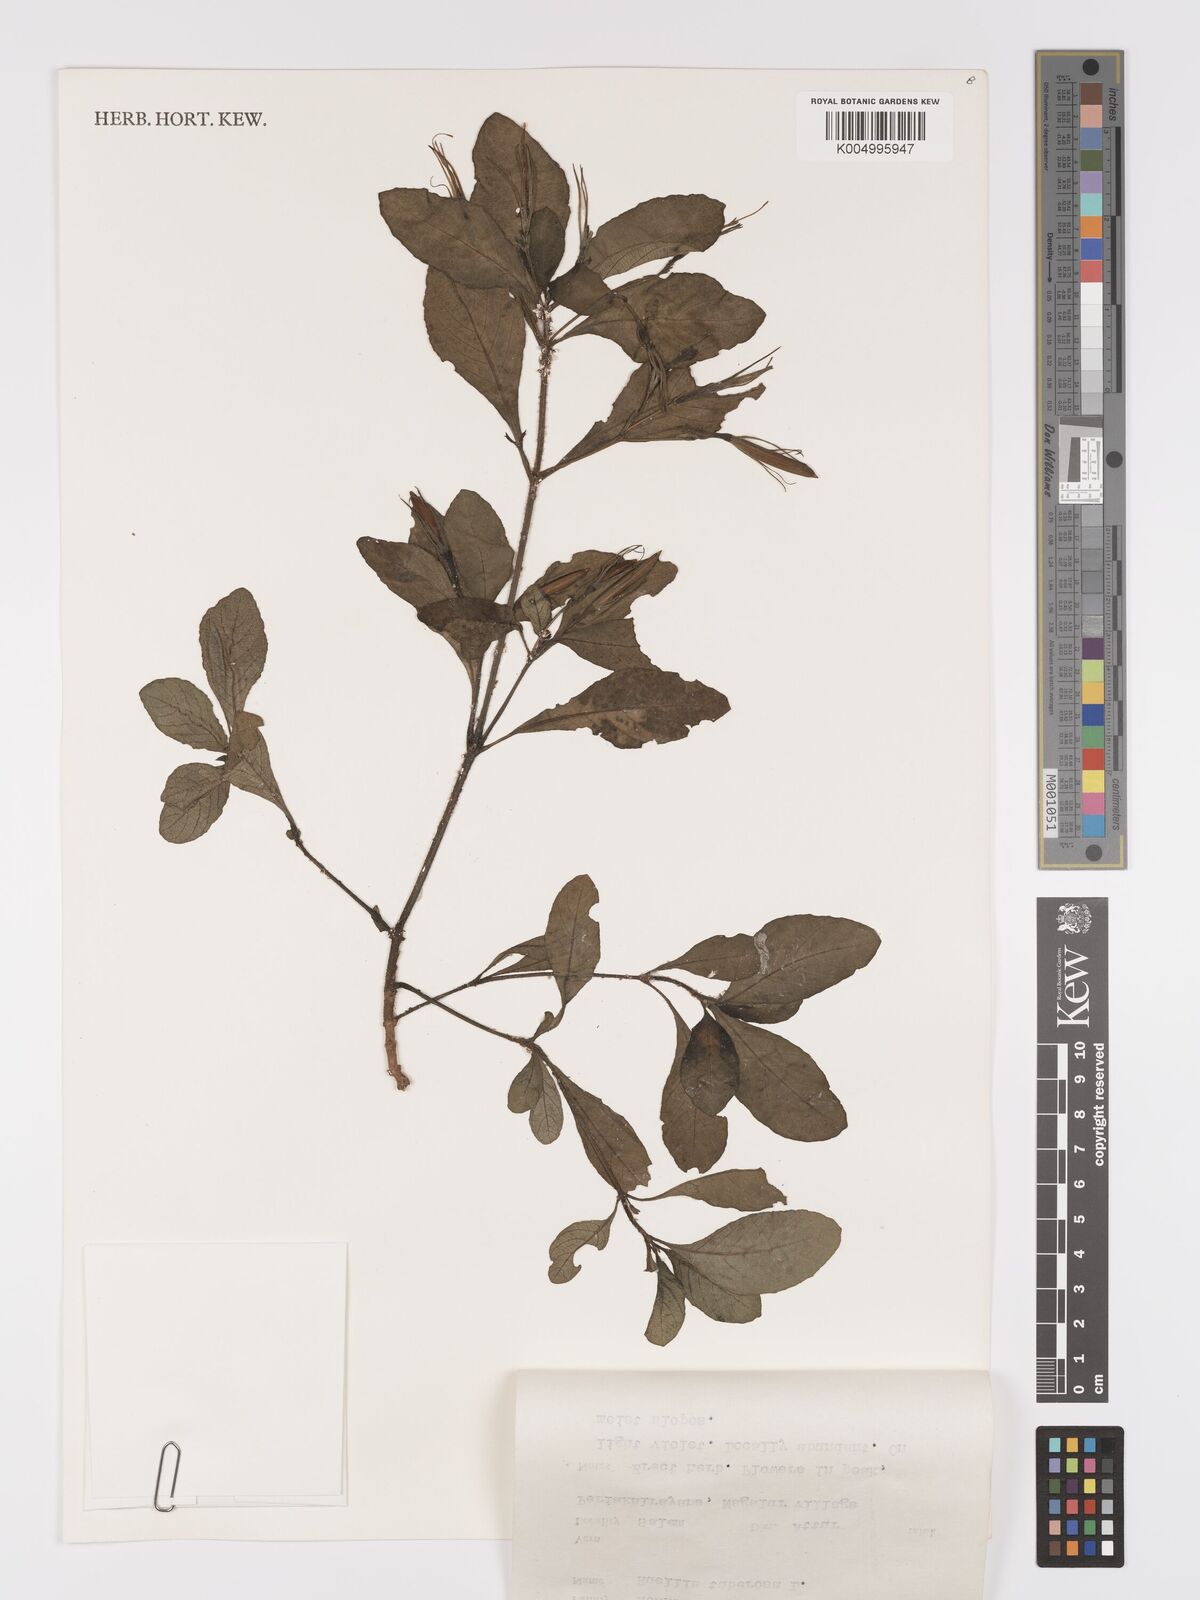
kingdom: Plantae
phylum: Tracheophyta
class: Magnoliopsida
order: Lamiales
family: Acanthaceae
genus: Ruellia
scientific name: Ruellia tuberosa
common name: Devil's bit
